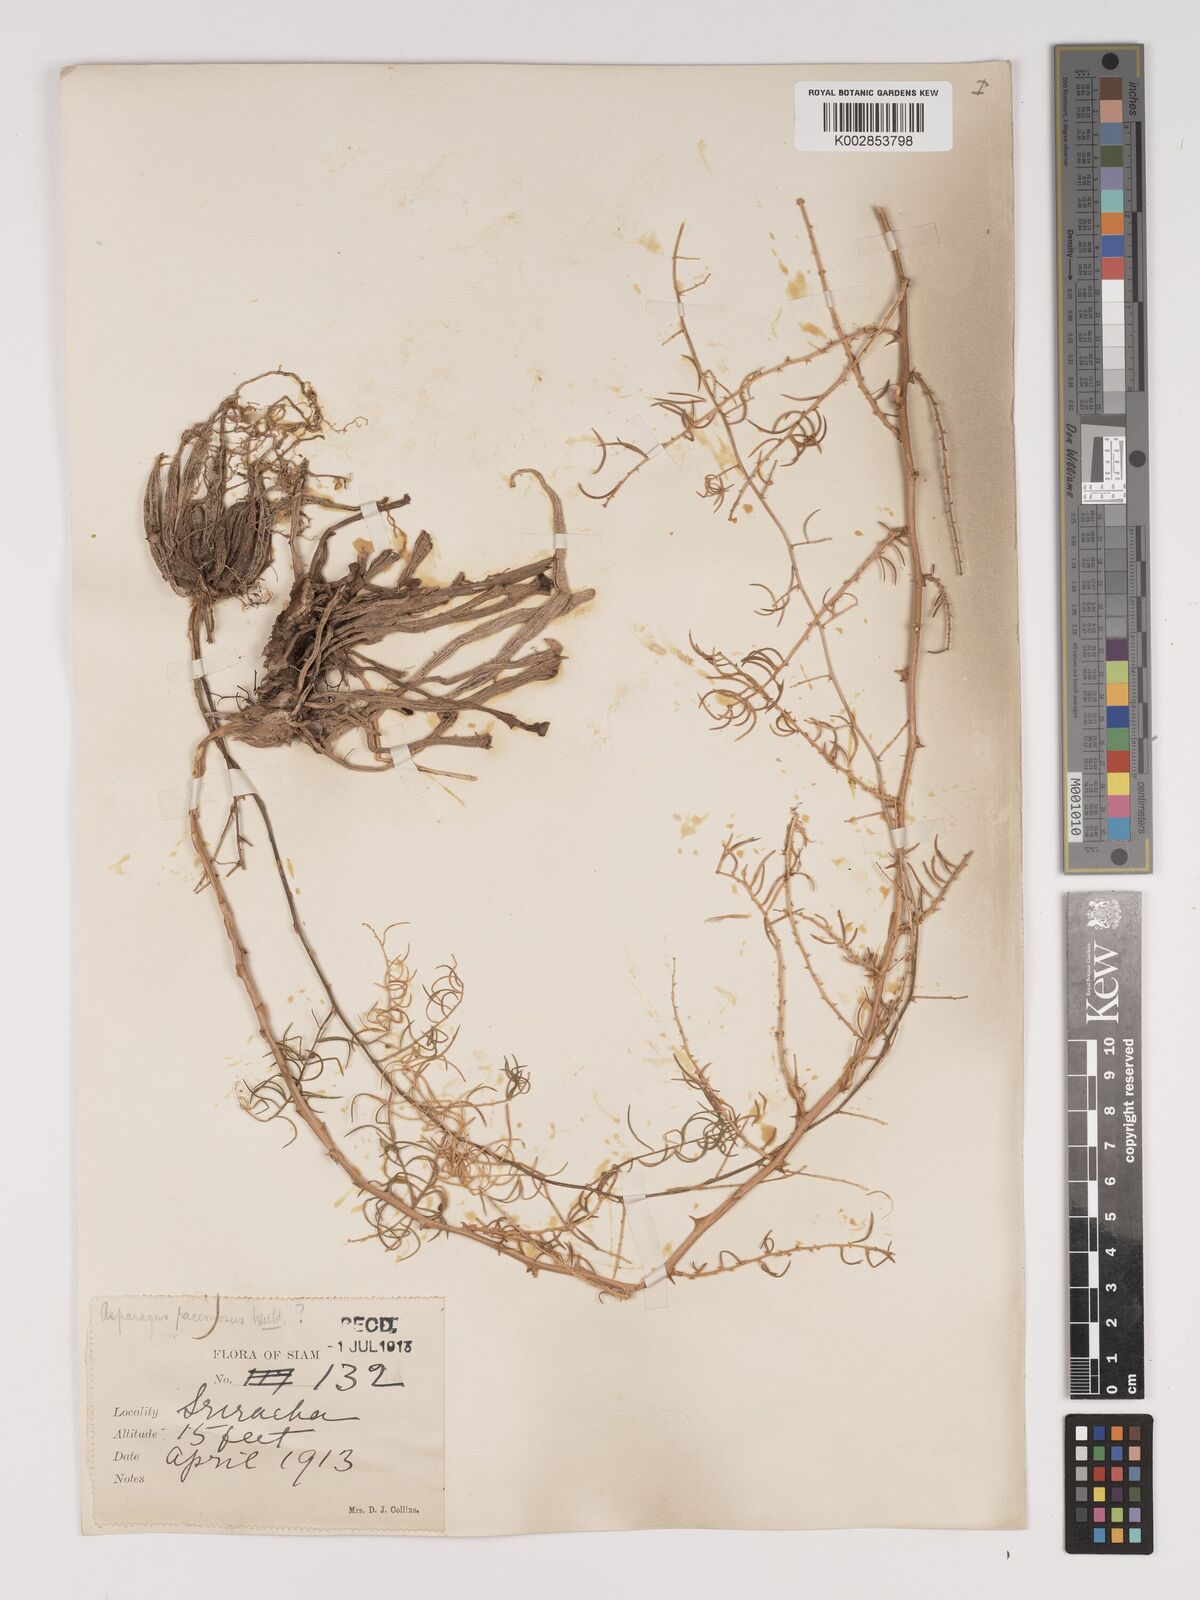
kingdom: Plantae
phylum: Tracheophyta
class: Liliopsida
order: Asparagales
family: Asparagaceae
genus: Asparagus
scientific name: Asparagus racemosus
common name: Asparagus-fern
